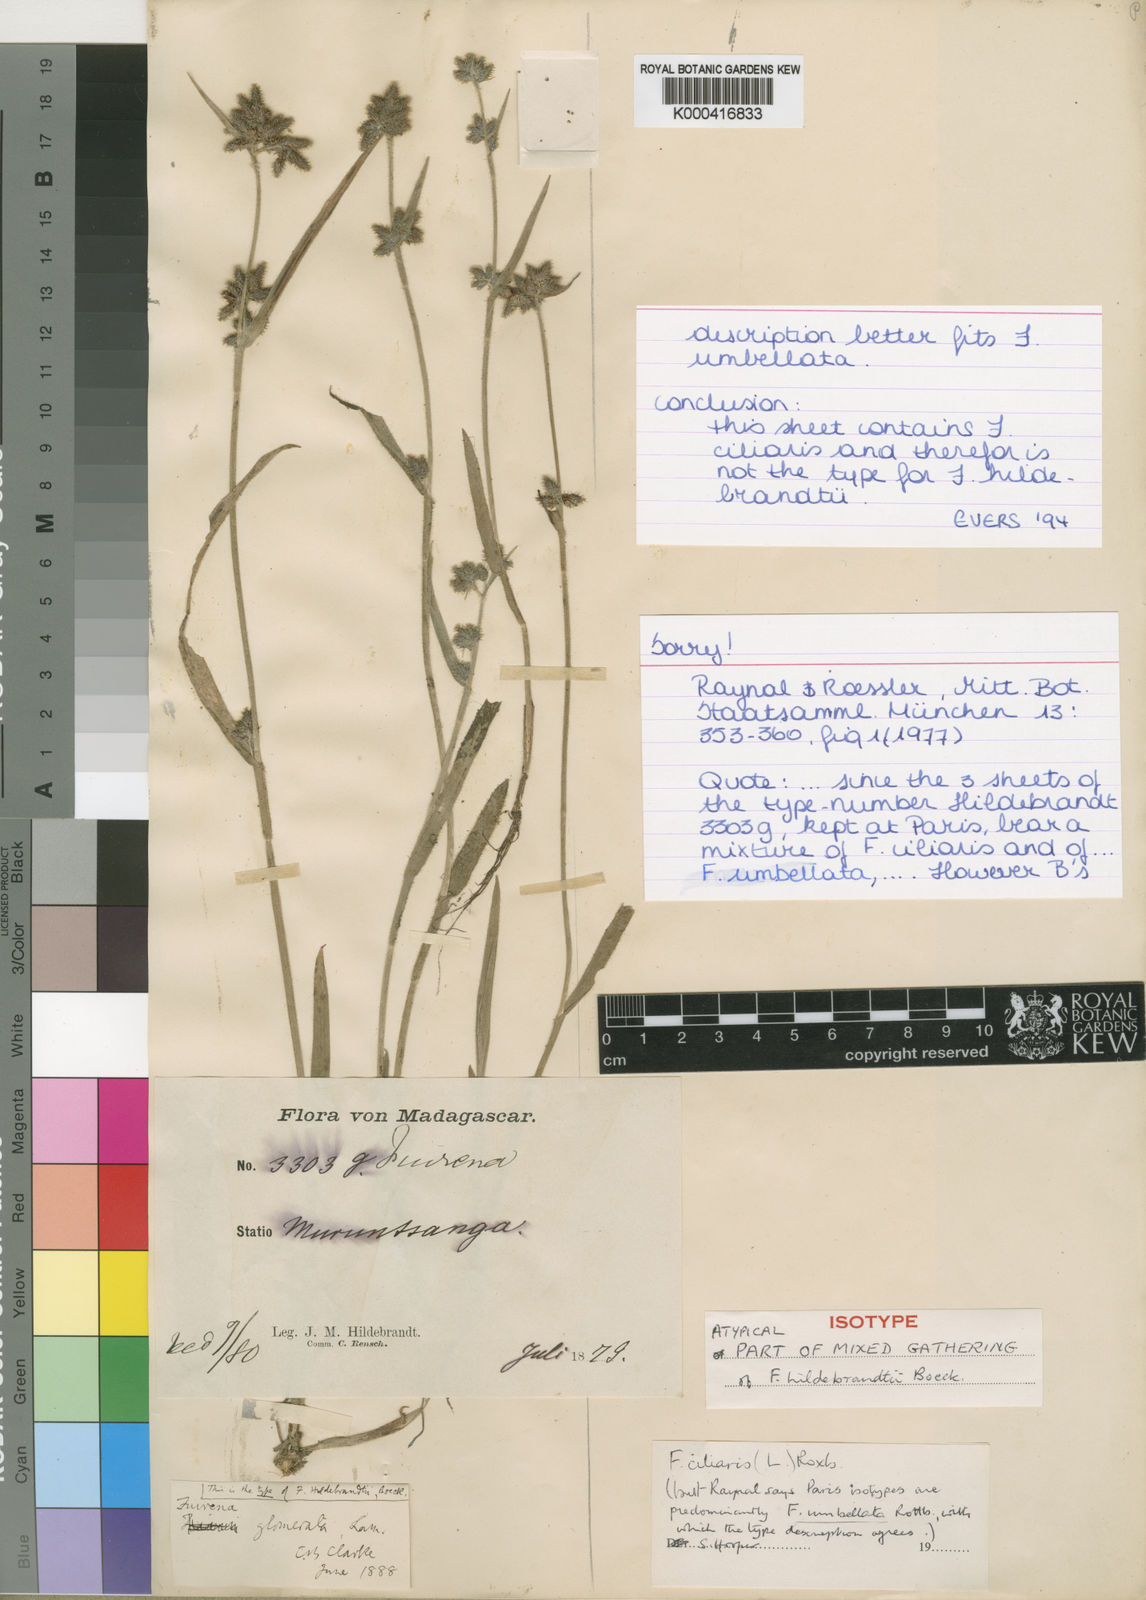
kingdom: Plantae
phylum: Tracheophyta
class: Liliopsida
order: Poales
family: Cyperaceae
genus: Fuirena
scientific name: Fuirena ciliaris
